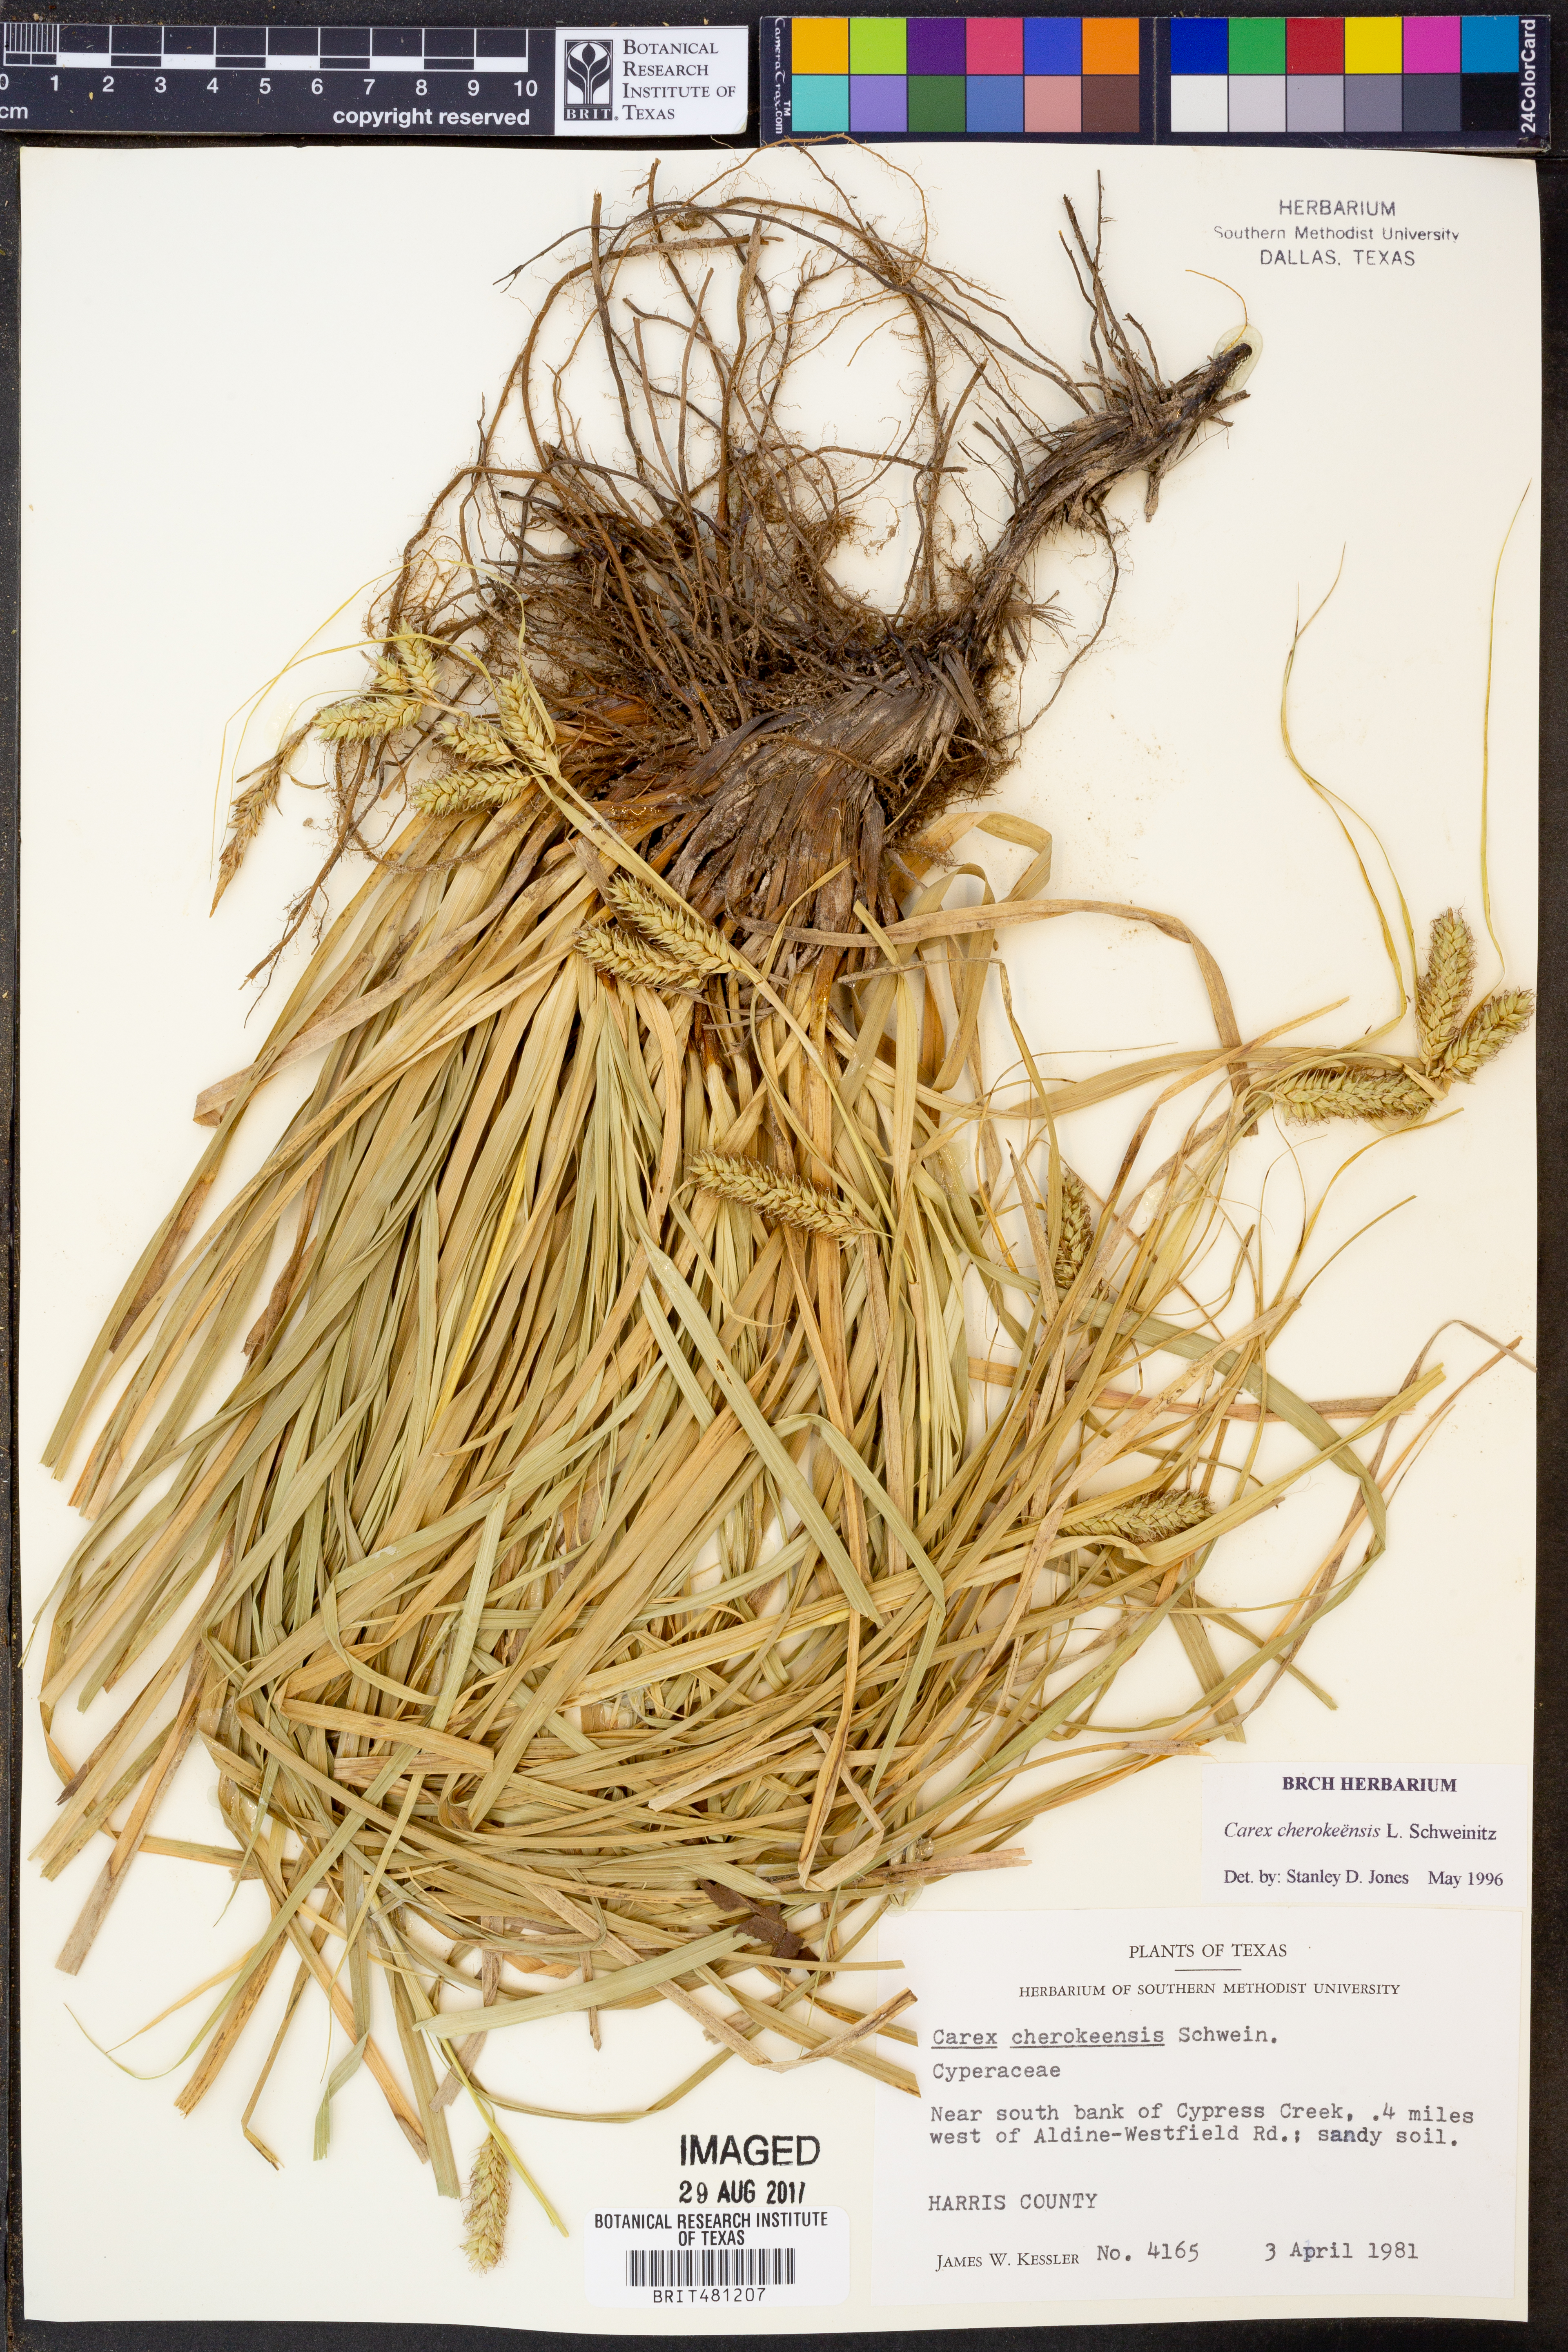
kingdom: Plantae
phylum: Tracheophyta
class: Liliopsida
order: Poales
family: Cyperaceae
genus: Carex
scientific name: Carex cherokeensis
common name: Cherokee sedge
